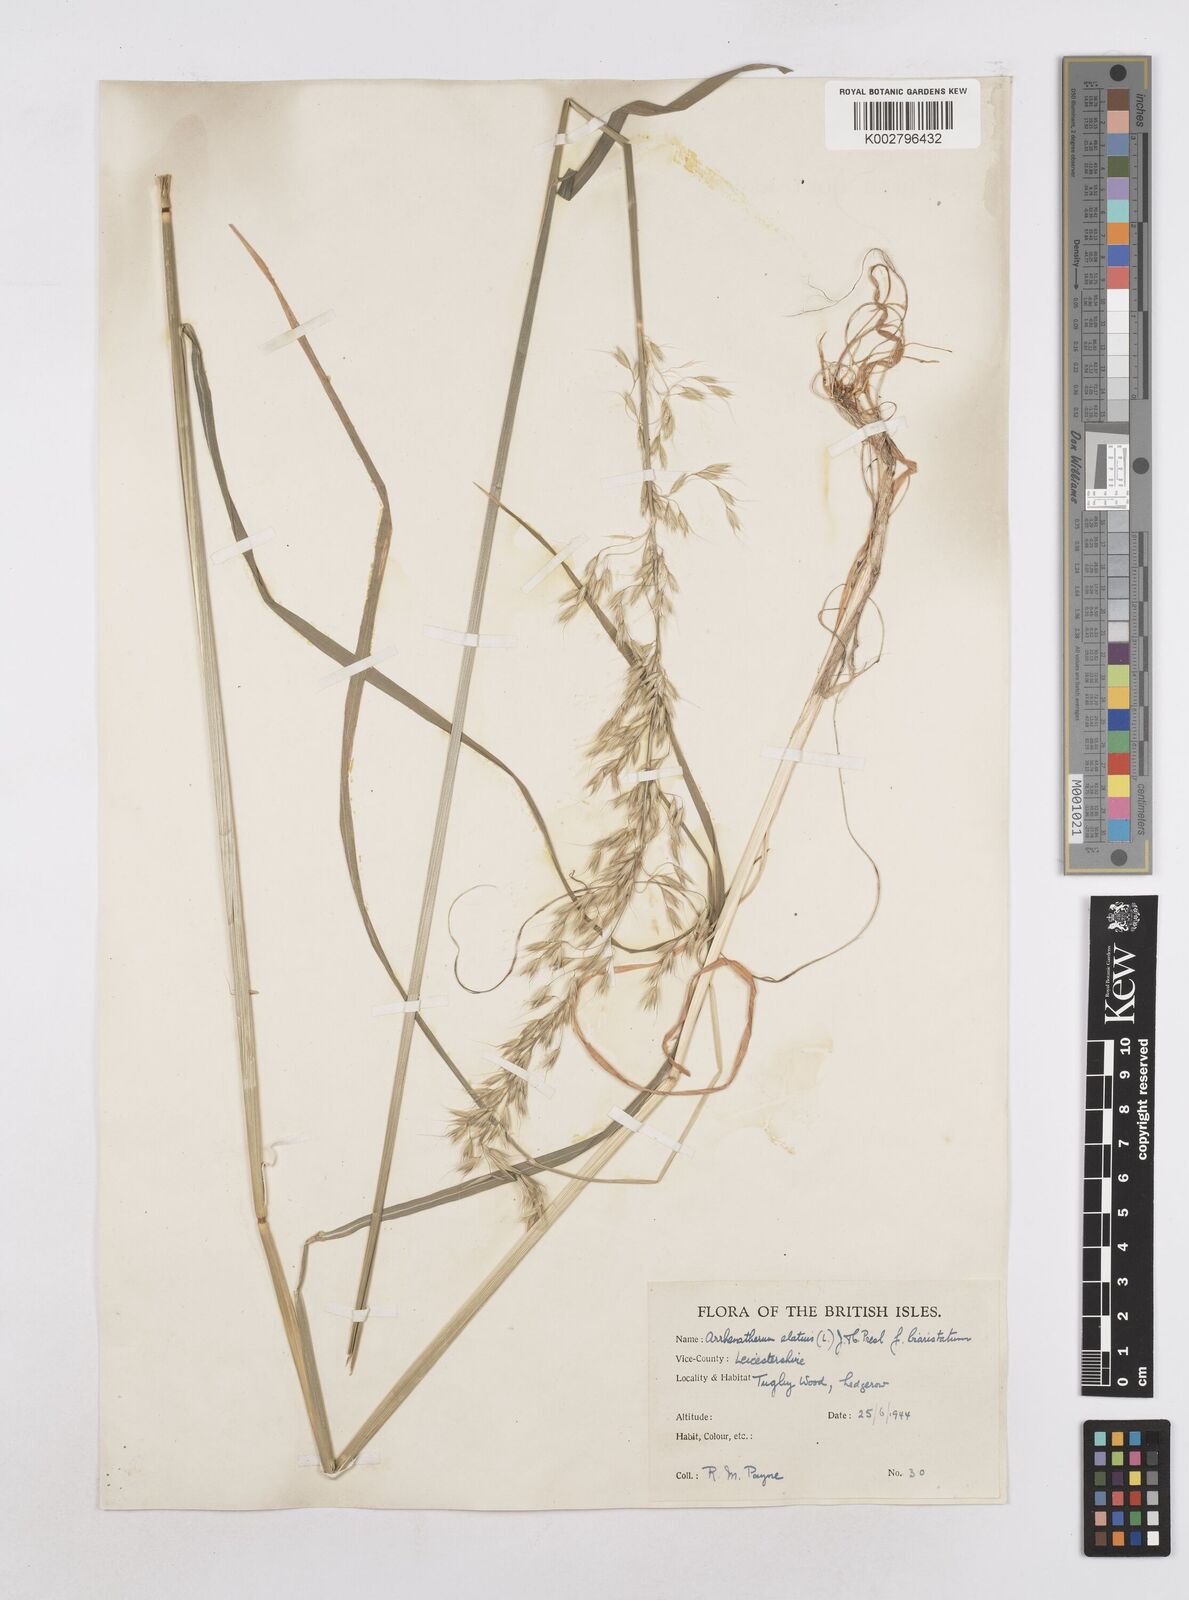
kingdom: Plantae
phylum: Tracheophyta
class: Liliopsida
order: Poales
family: Poaceae
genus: Arrhenatherum
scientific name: Arrhenatherum elatius
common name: Tall oatgrass
